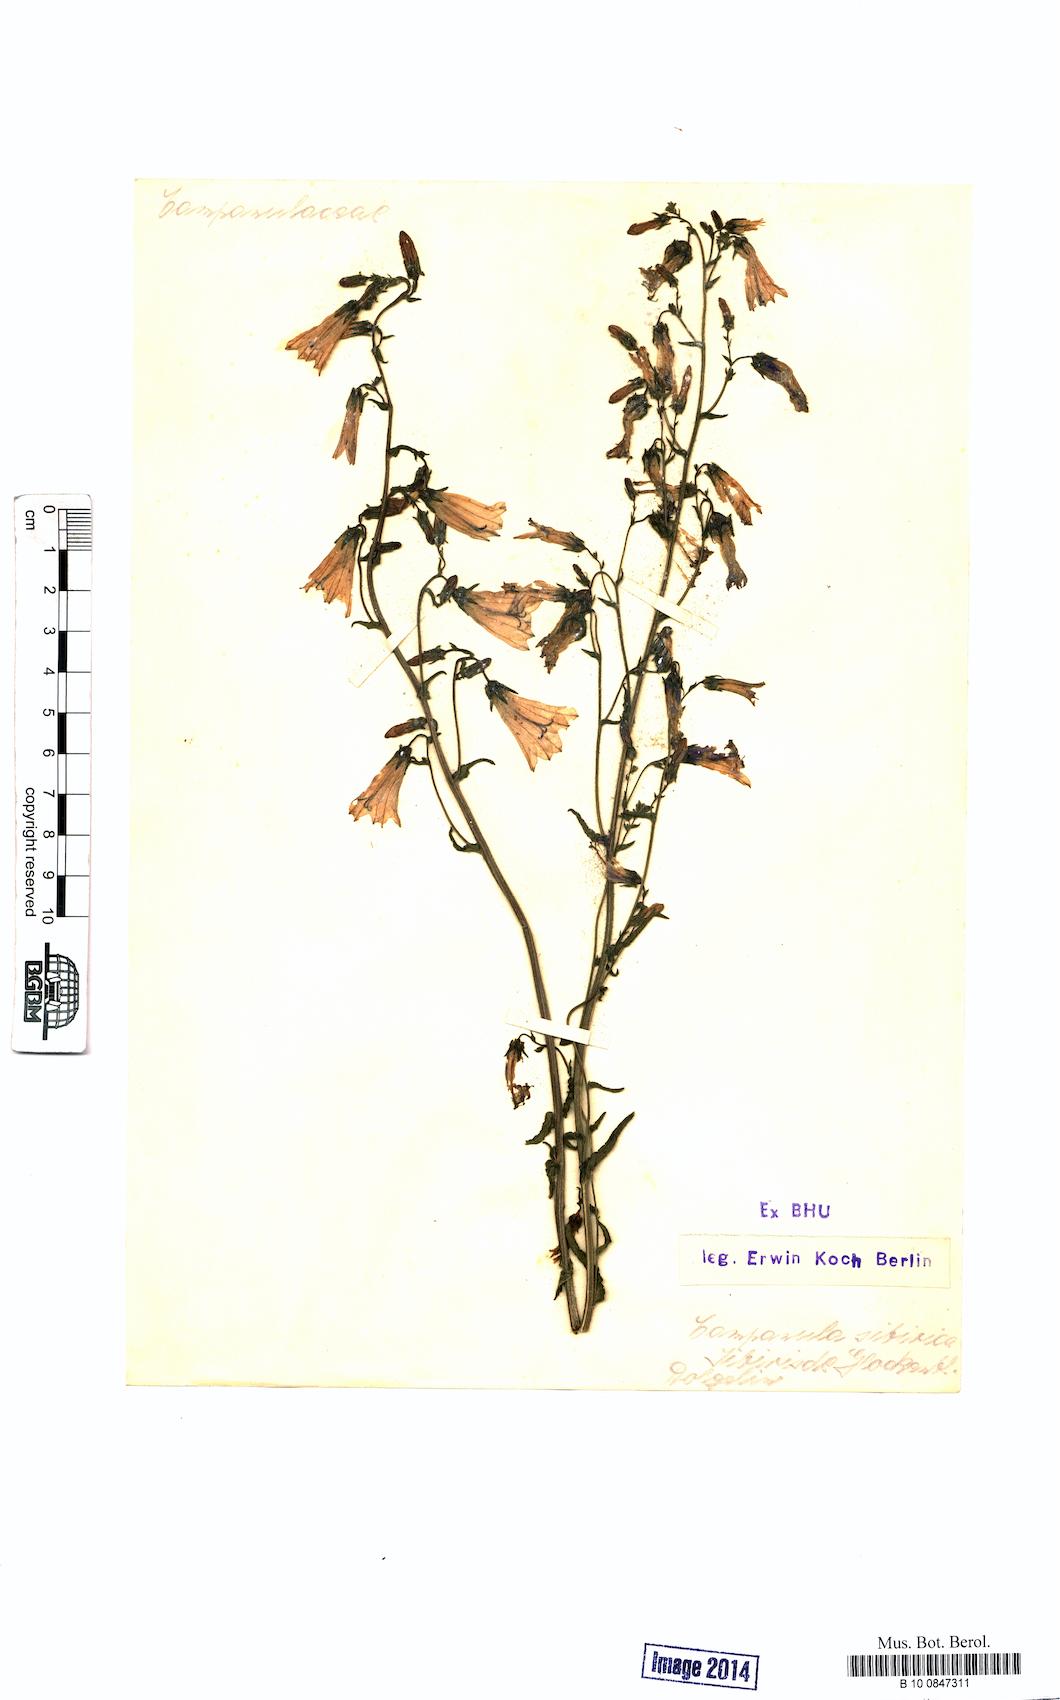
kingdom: Plantae
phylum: Tracheophyta
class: Magnoliopsida
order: Asterales
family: Campanulaceae
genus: Campanula
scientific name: Campanula sibirica
